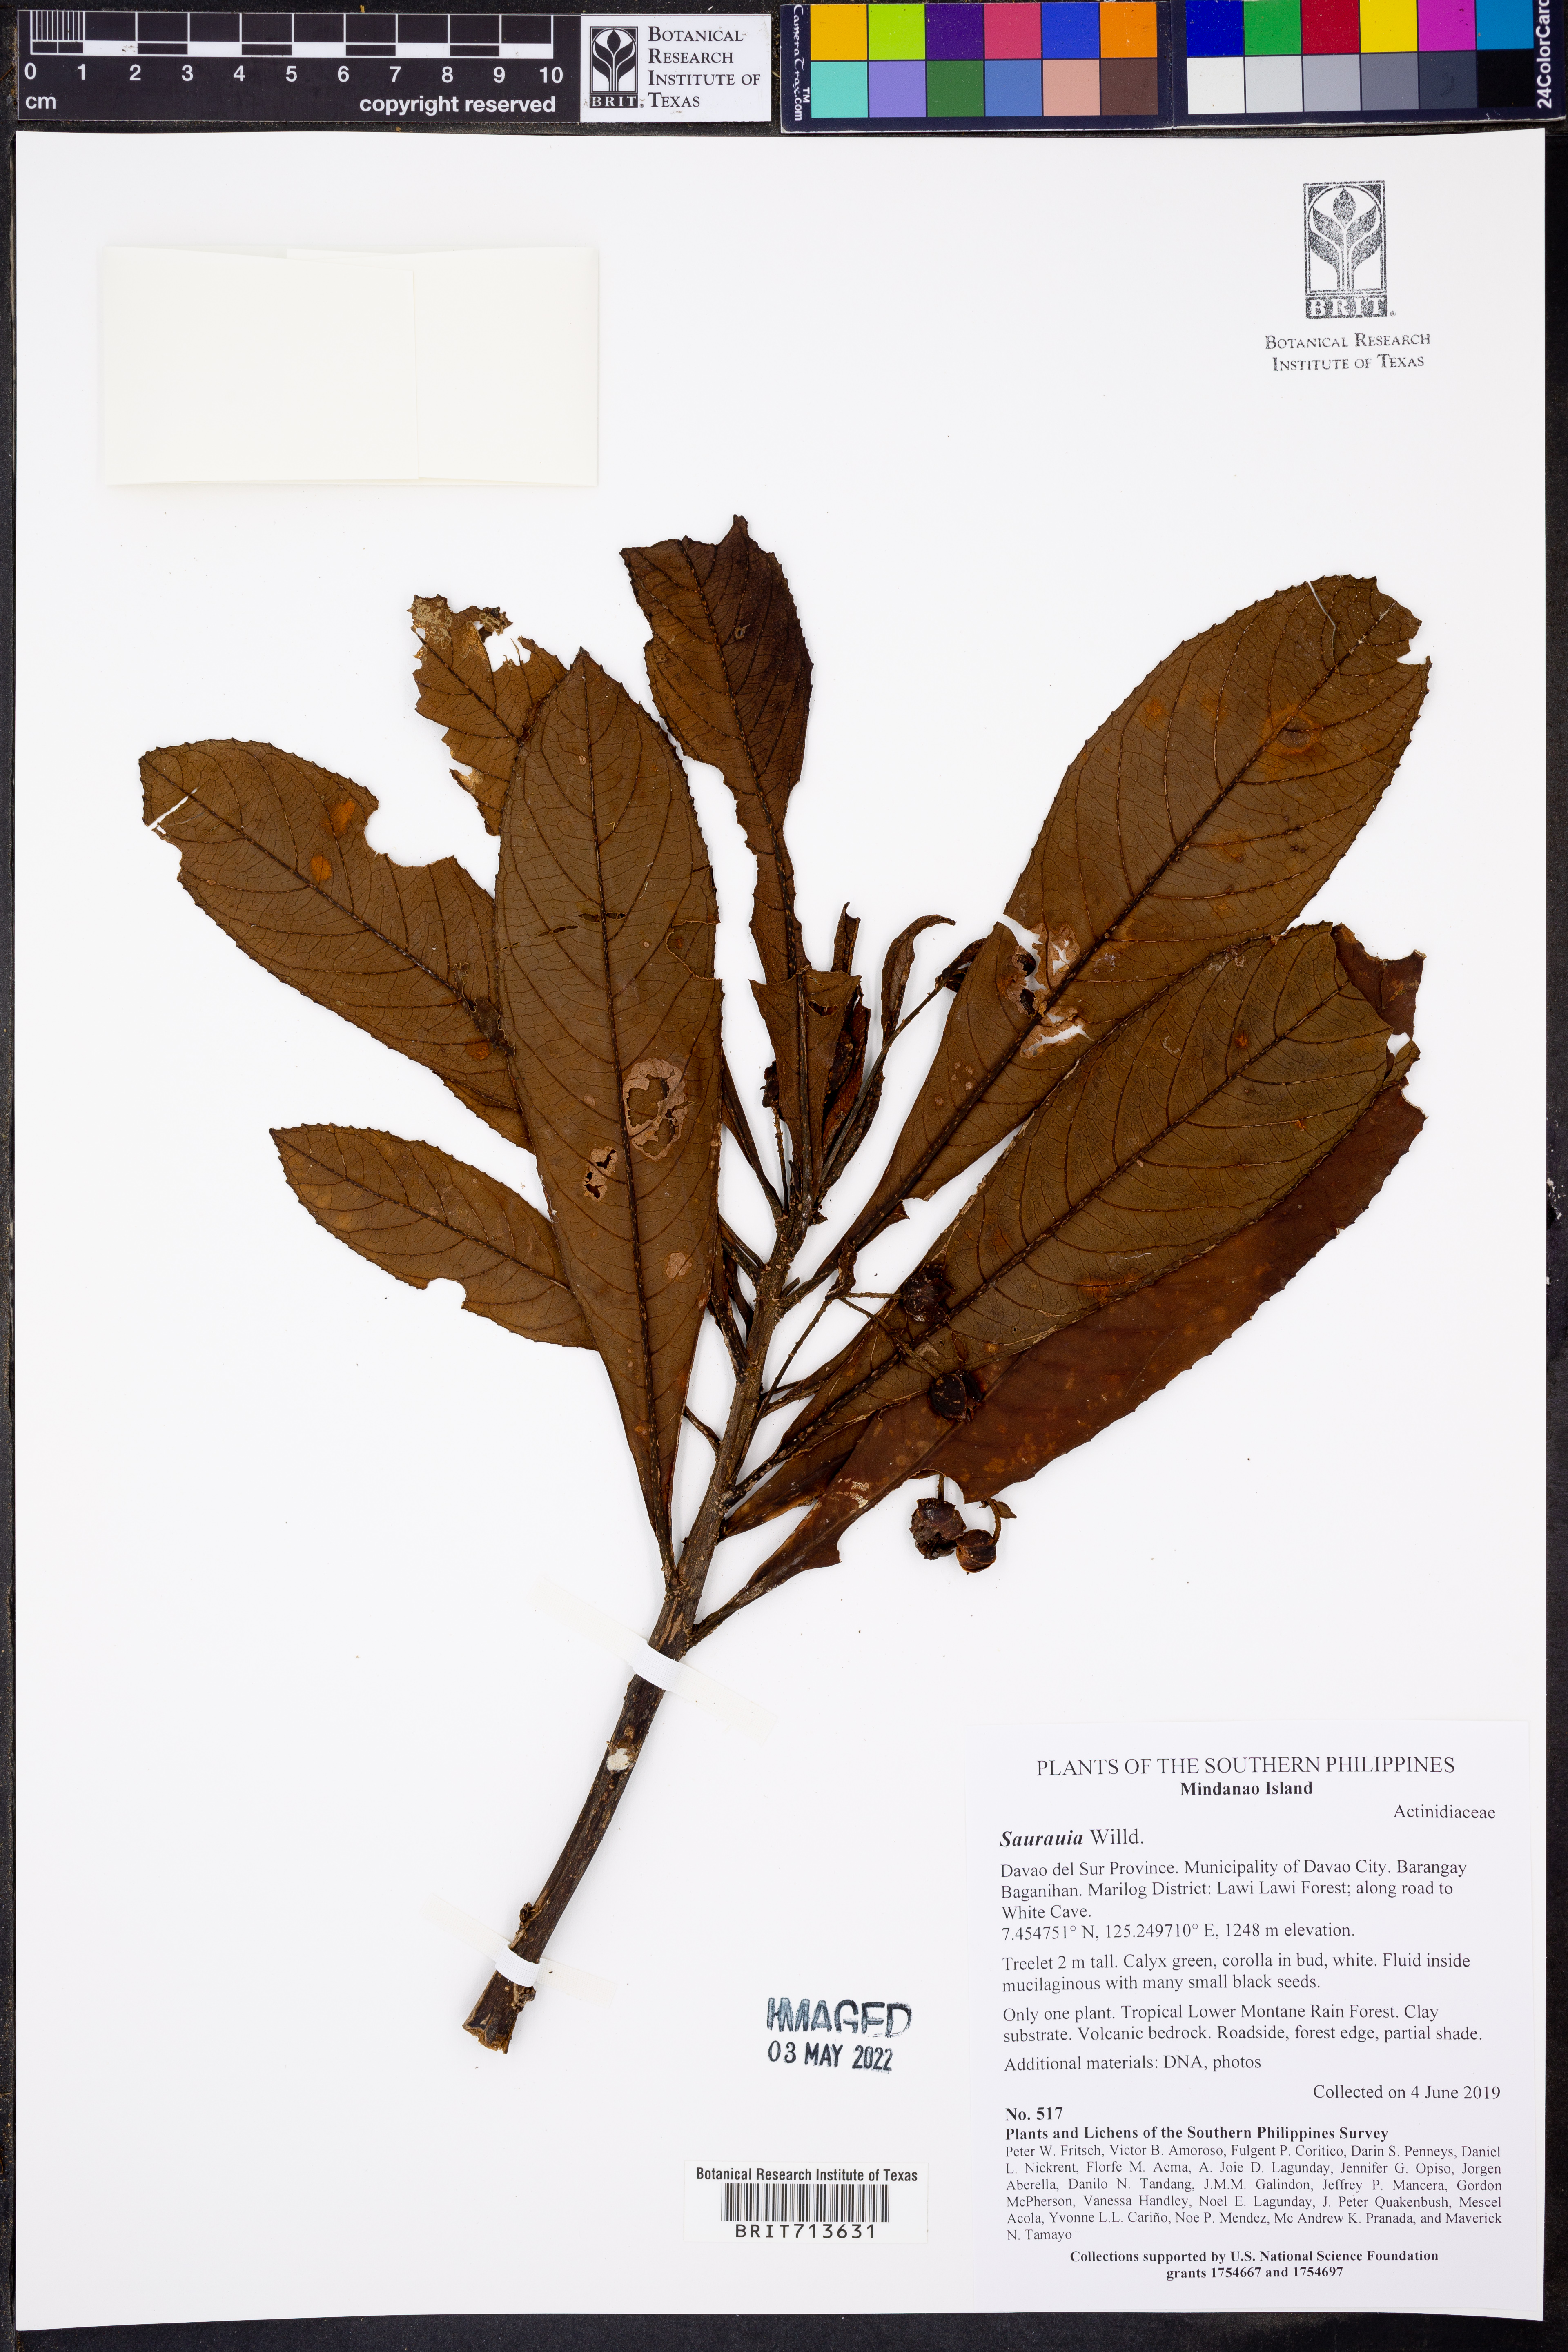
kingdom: Plantae
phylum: Tracheophyta
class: Magnoliopsida
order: Ericales
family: Actinidiaceae
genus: Saurauia
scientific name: Saurauia
